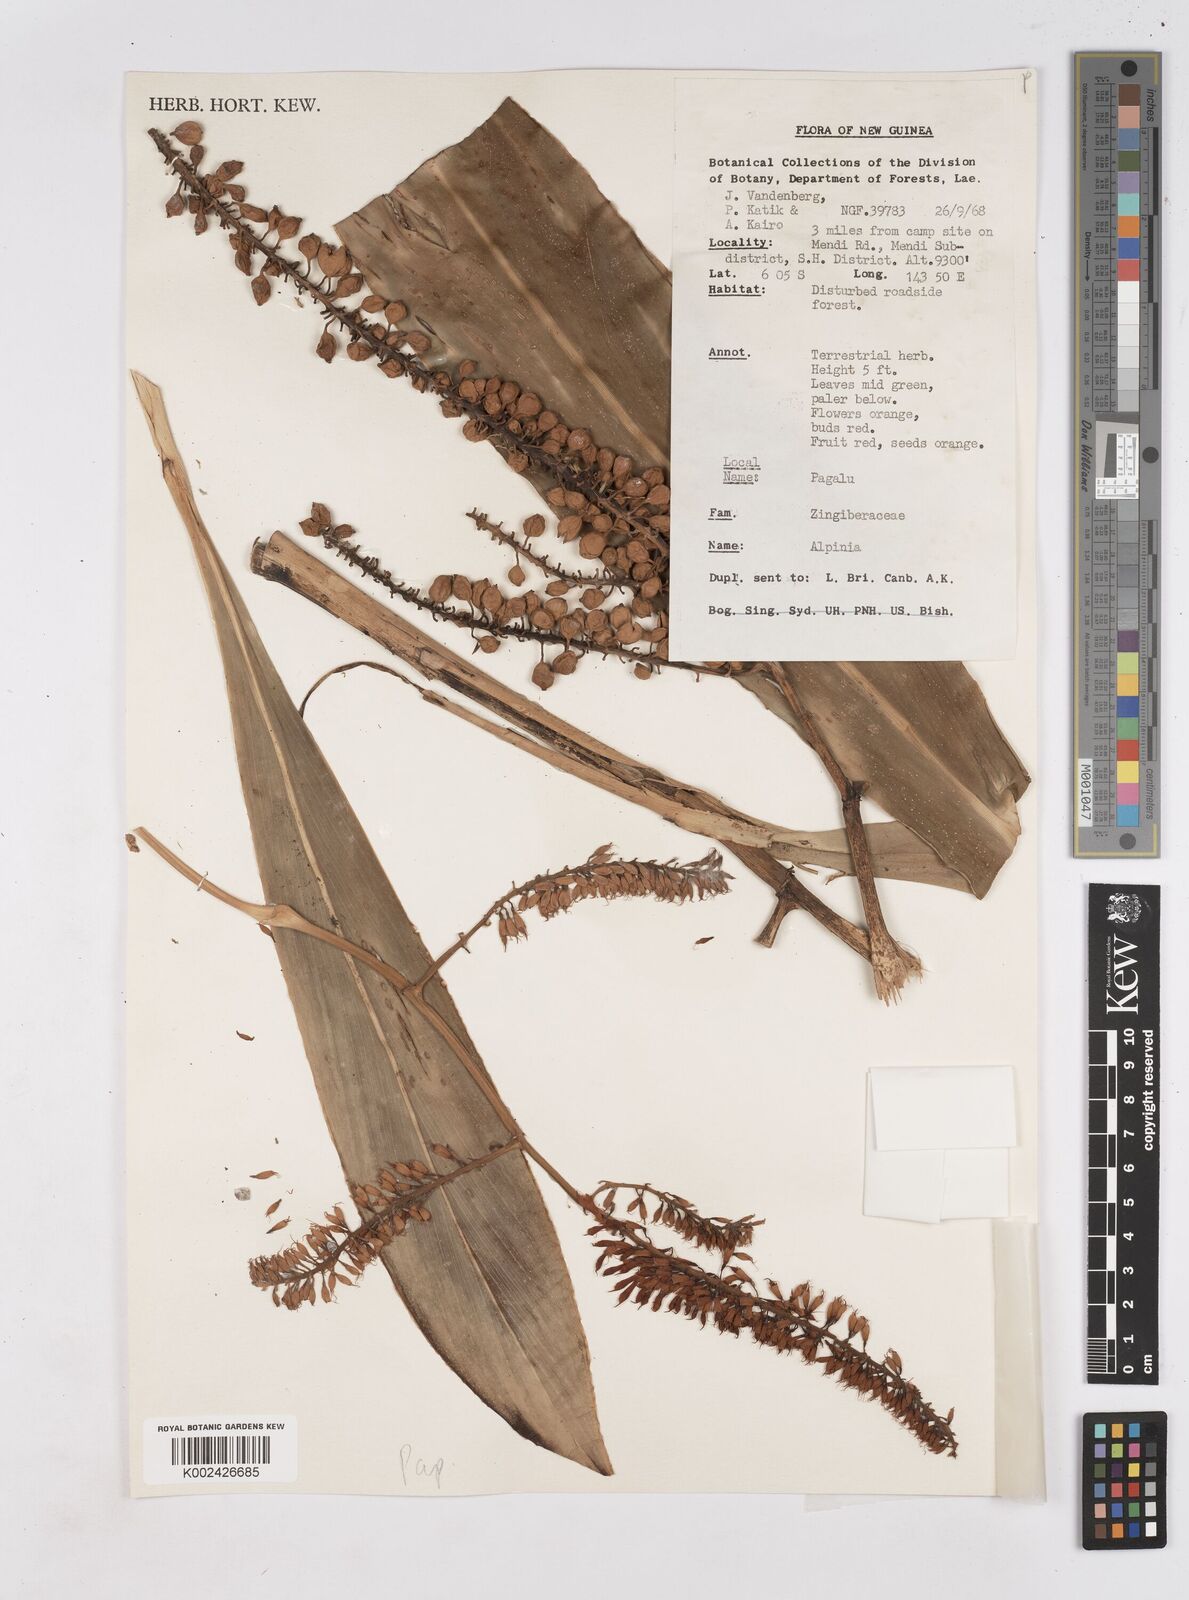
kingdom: Plantae
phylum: Tracheophyta
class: Liliopsida
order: Zingiberales
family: Zingiberaceae
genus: Riedelia
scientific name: Riedelia
